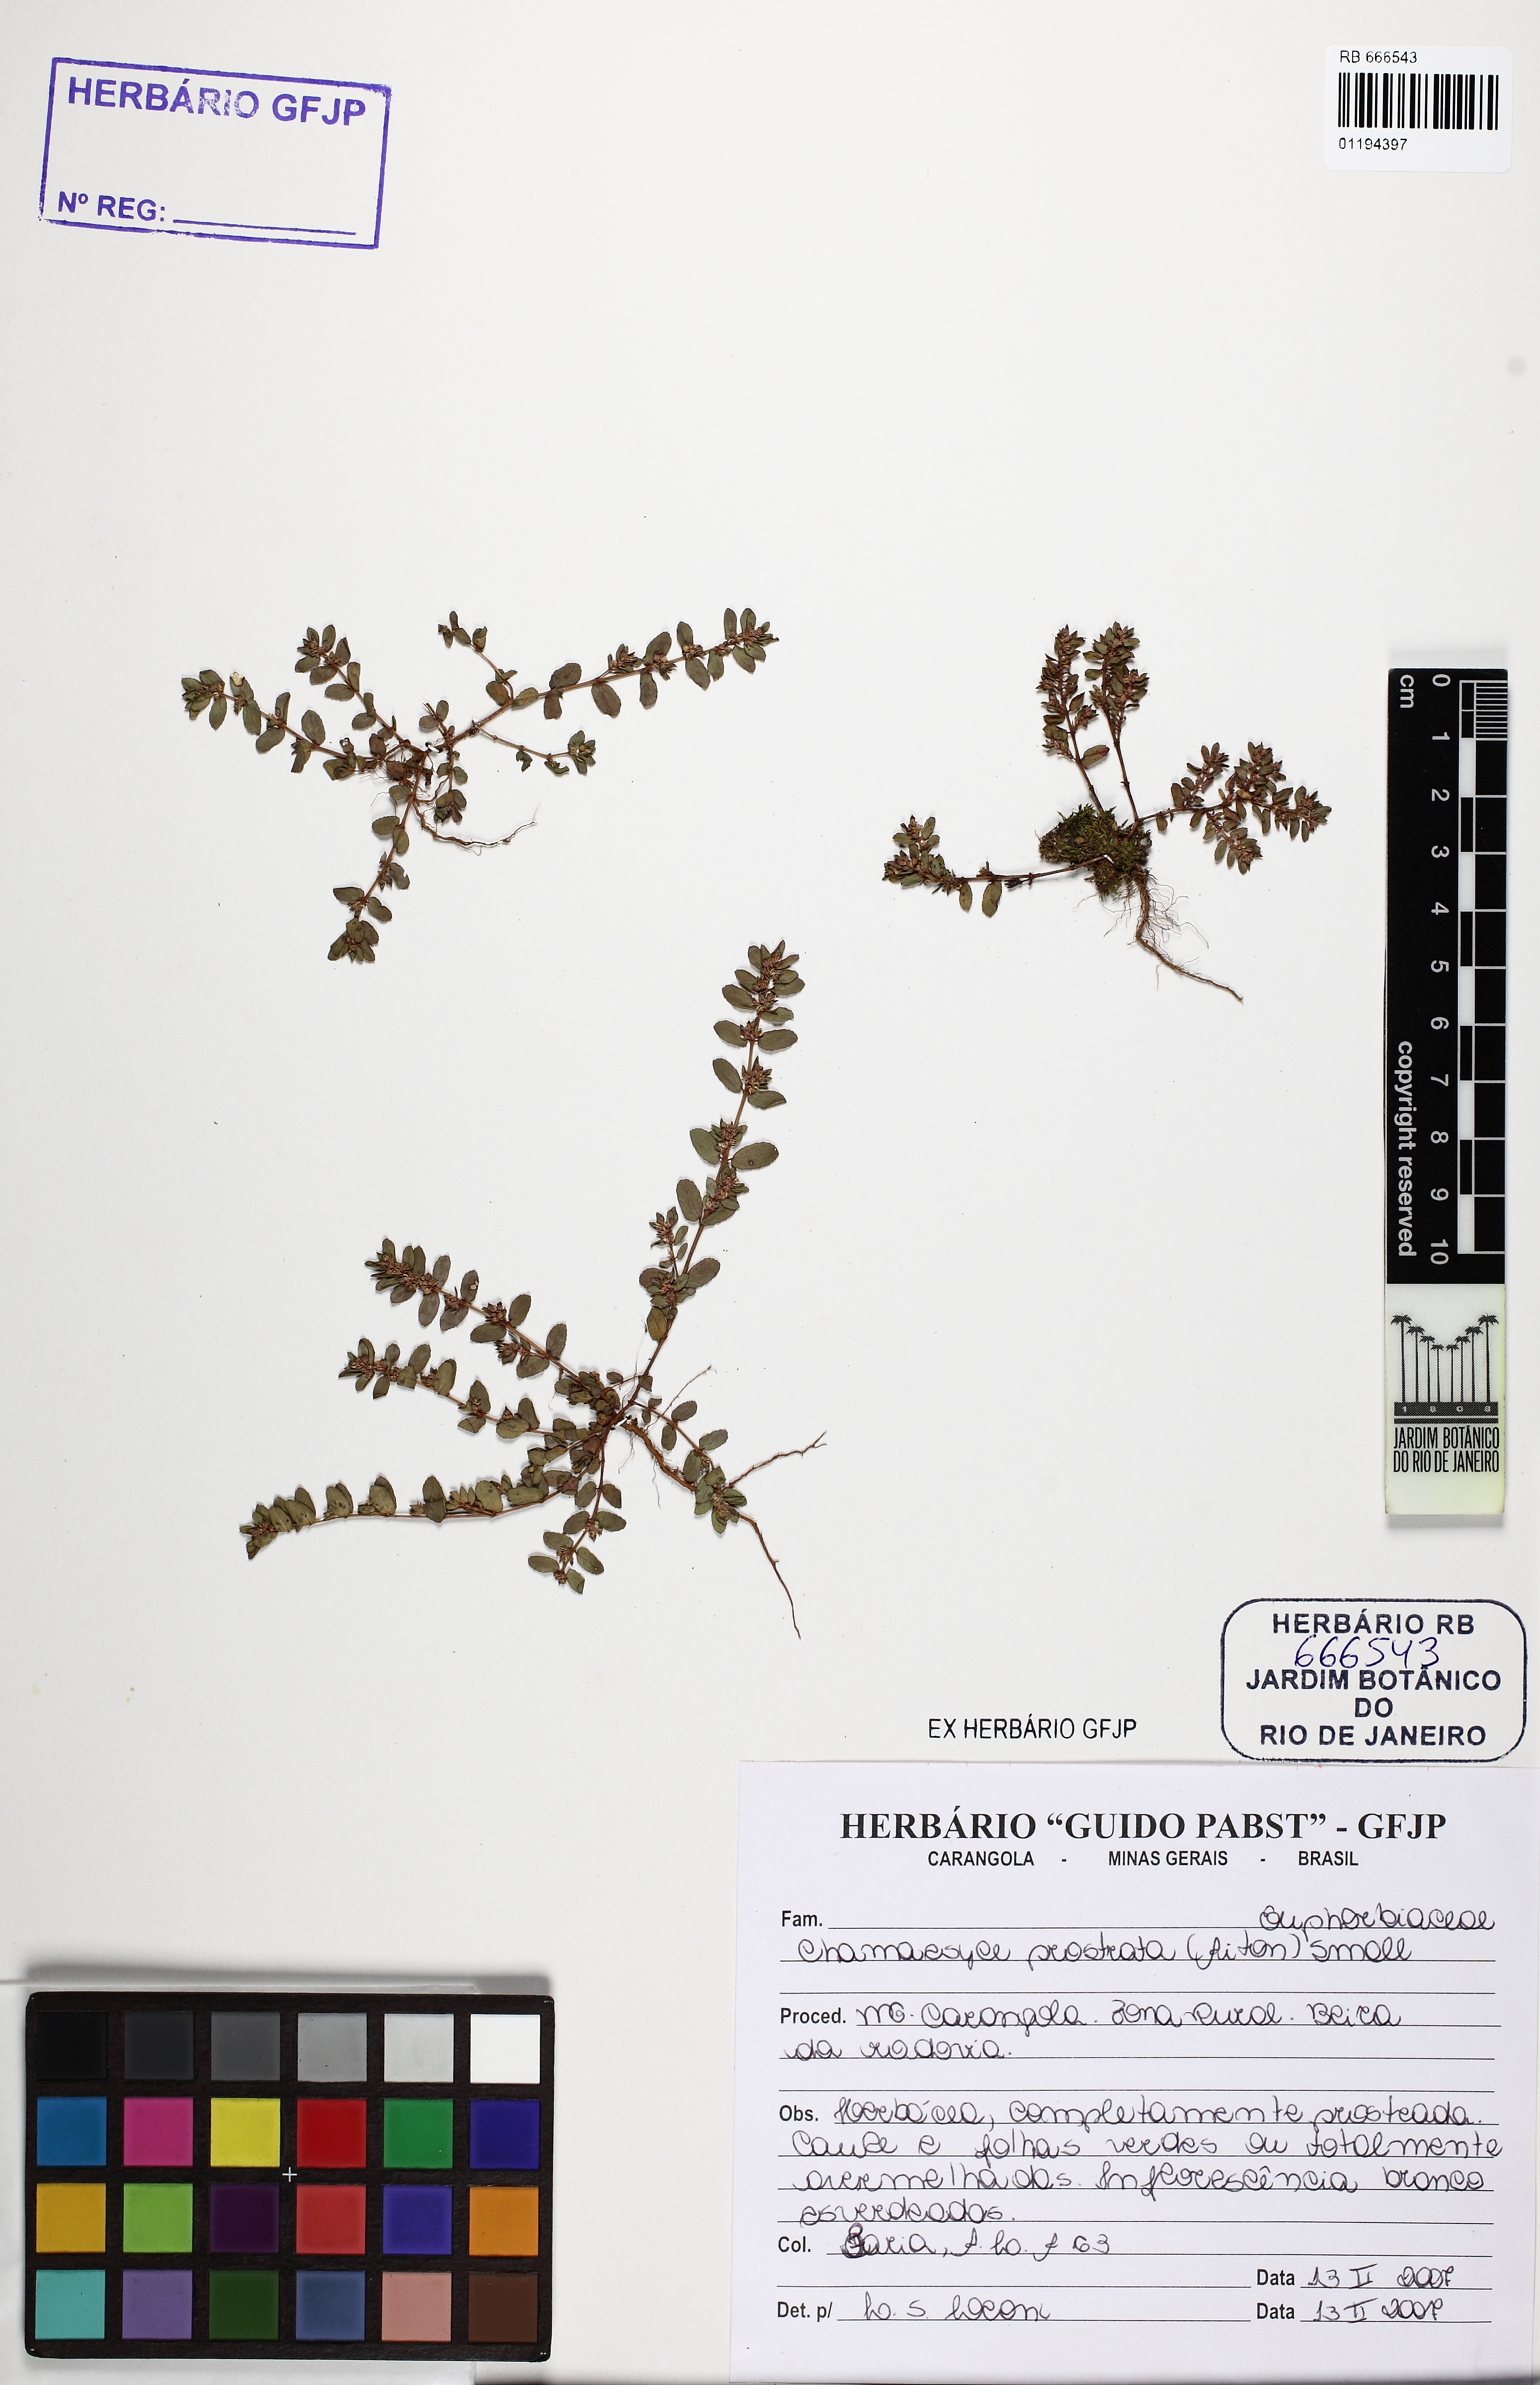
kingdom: Plantae
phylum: Tracheophyta
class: Magnoliopsida
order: Malpighiales
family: Euphorbiaceae
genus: Euphorbia
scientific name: Euphorbia prostrata
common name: Prostrate sandmat
